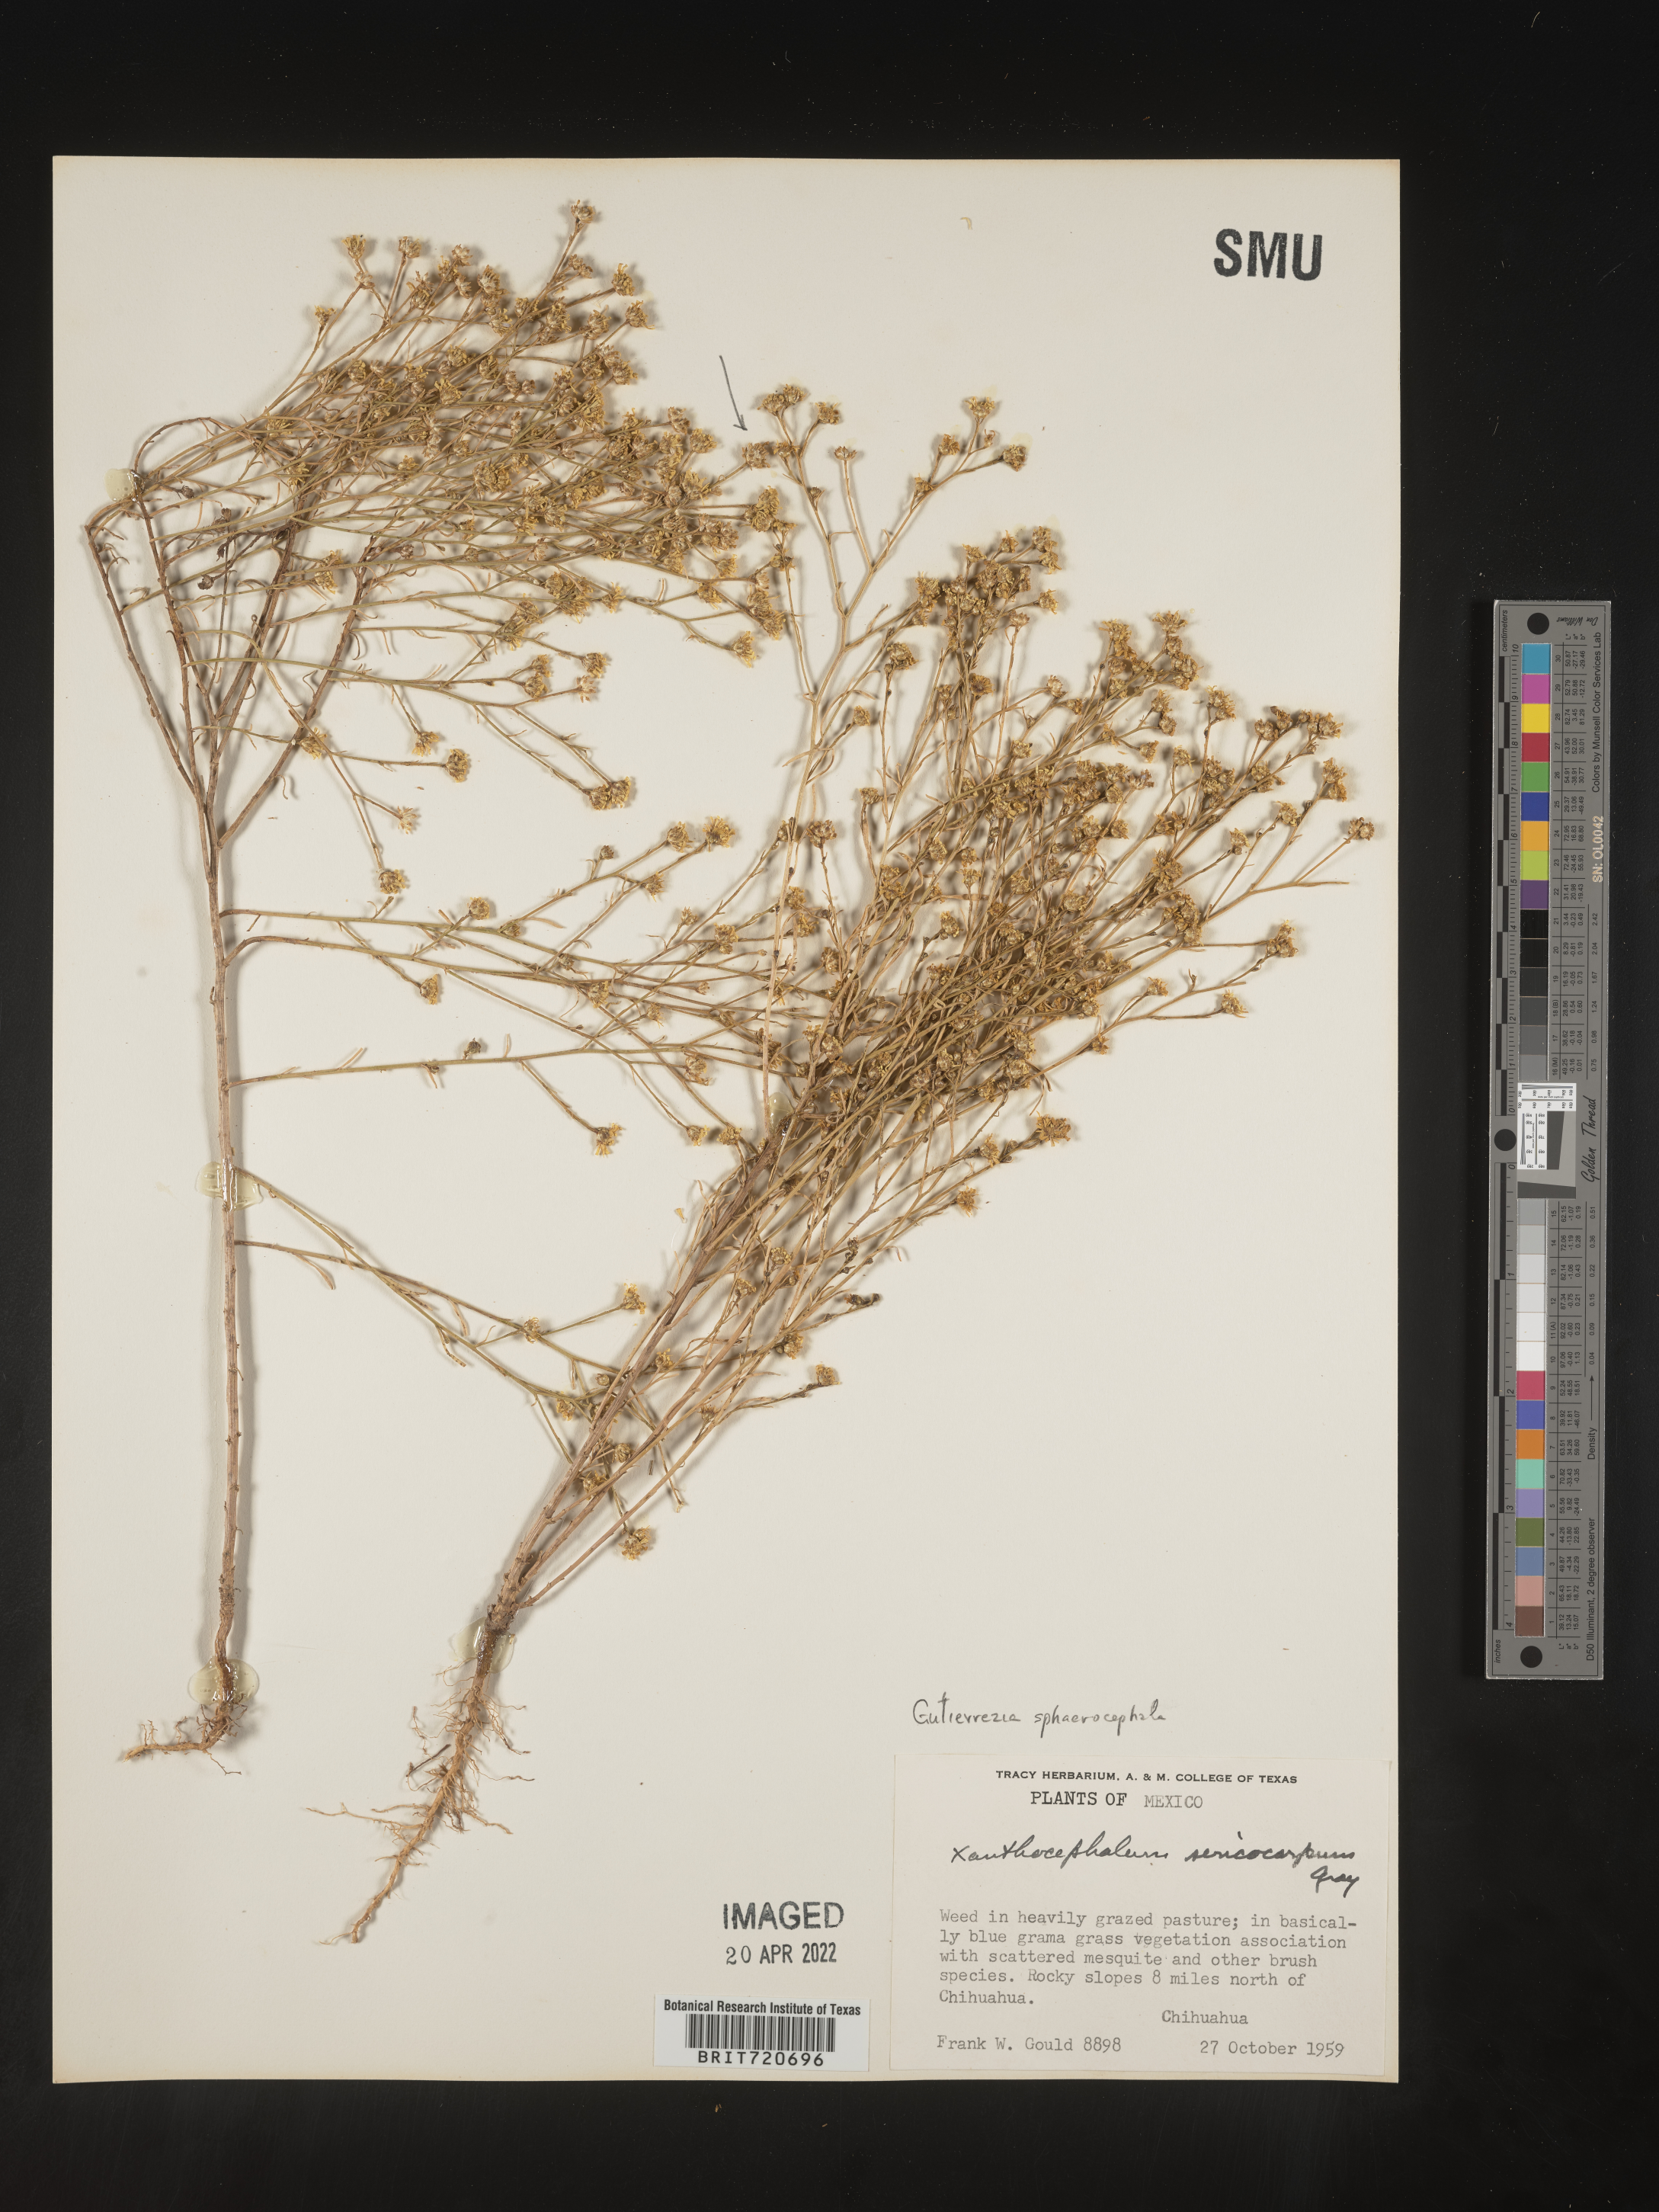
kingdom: Plantae
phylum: Tracheophyta
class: Magnoliopsida
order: Asterales
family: Asteraceae
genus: Gutierrezia
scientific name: Gutierrezia sphaerocephala
